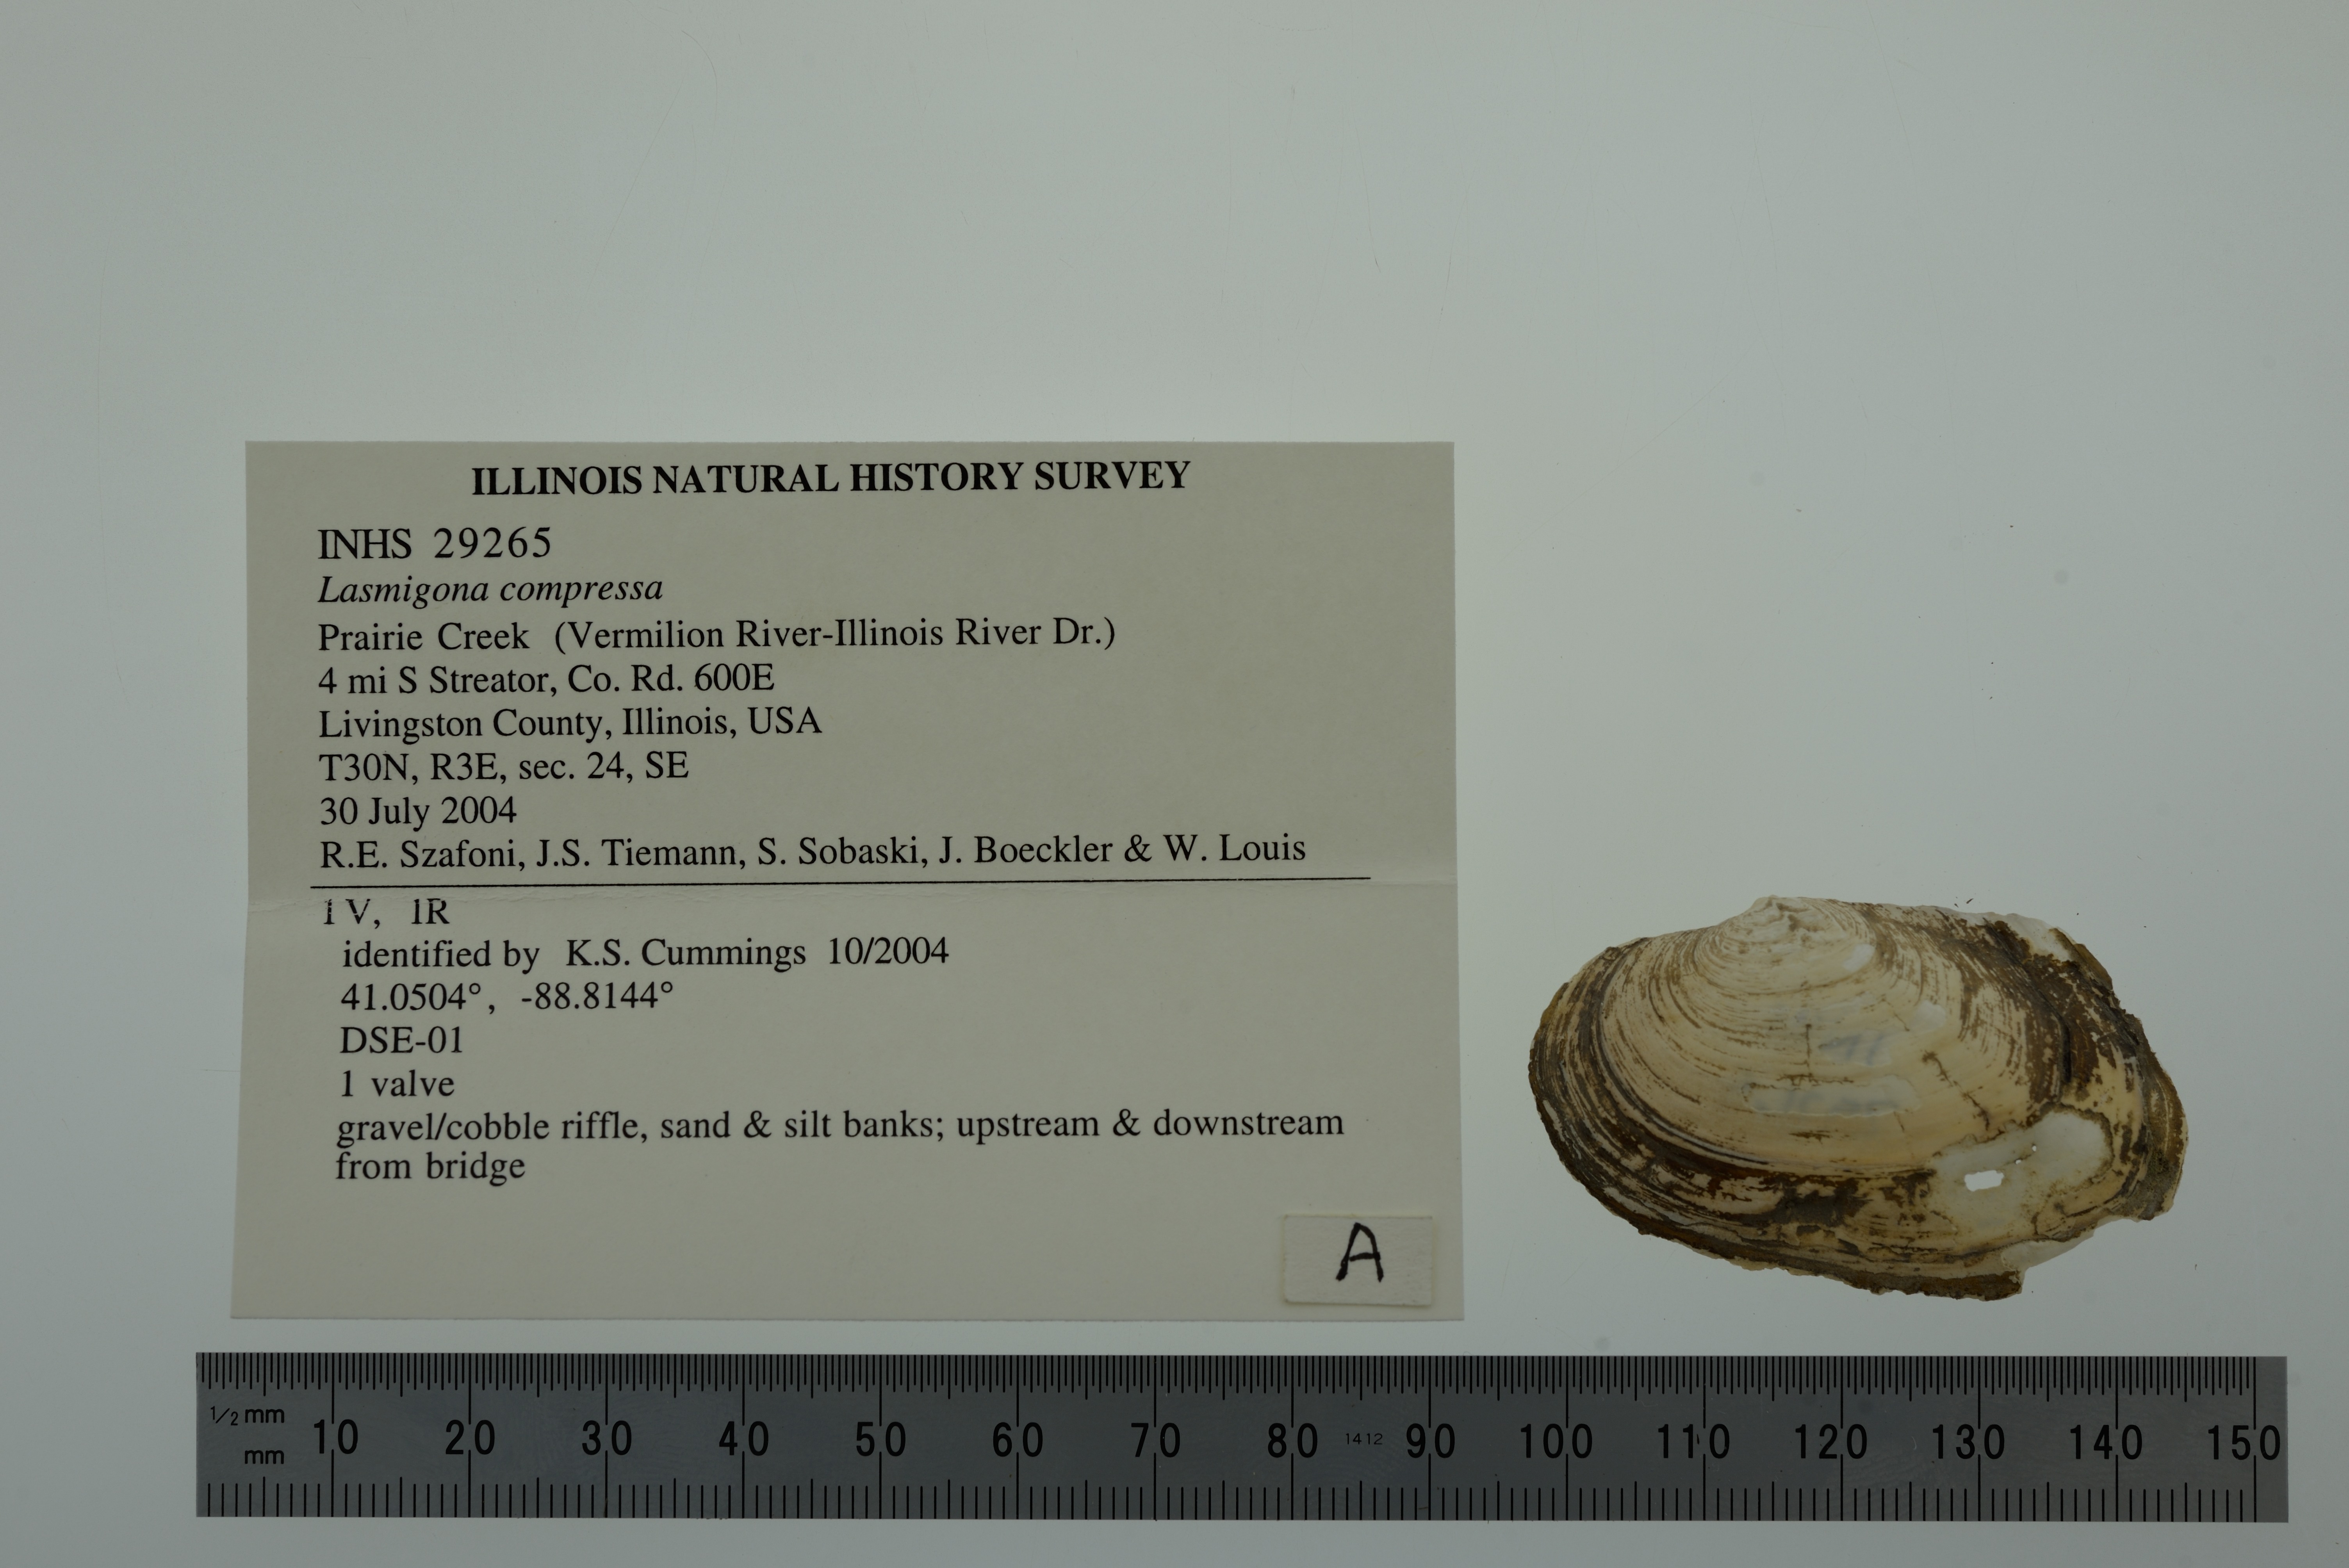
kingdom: Animalia
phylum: Mollusca
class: Bivalvia
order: Unionida
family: Unionidae
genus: Lasmigona
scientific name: Lasmigona compressa
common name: Creek heelsplitter
